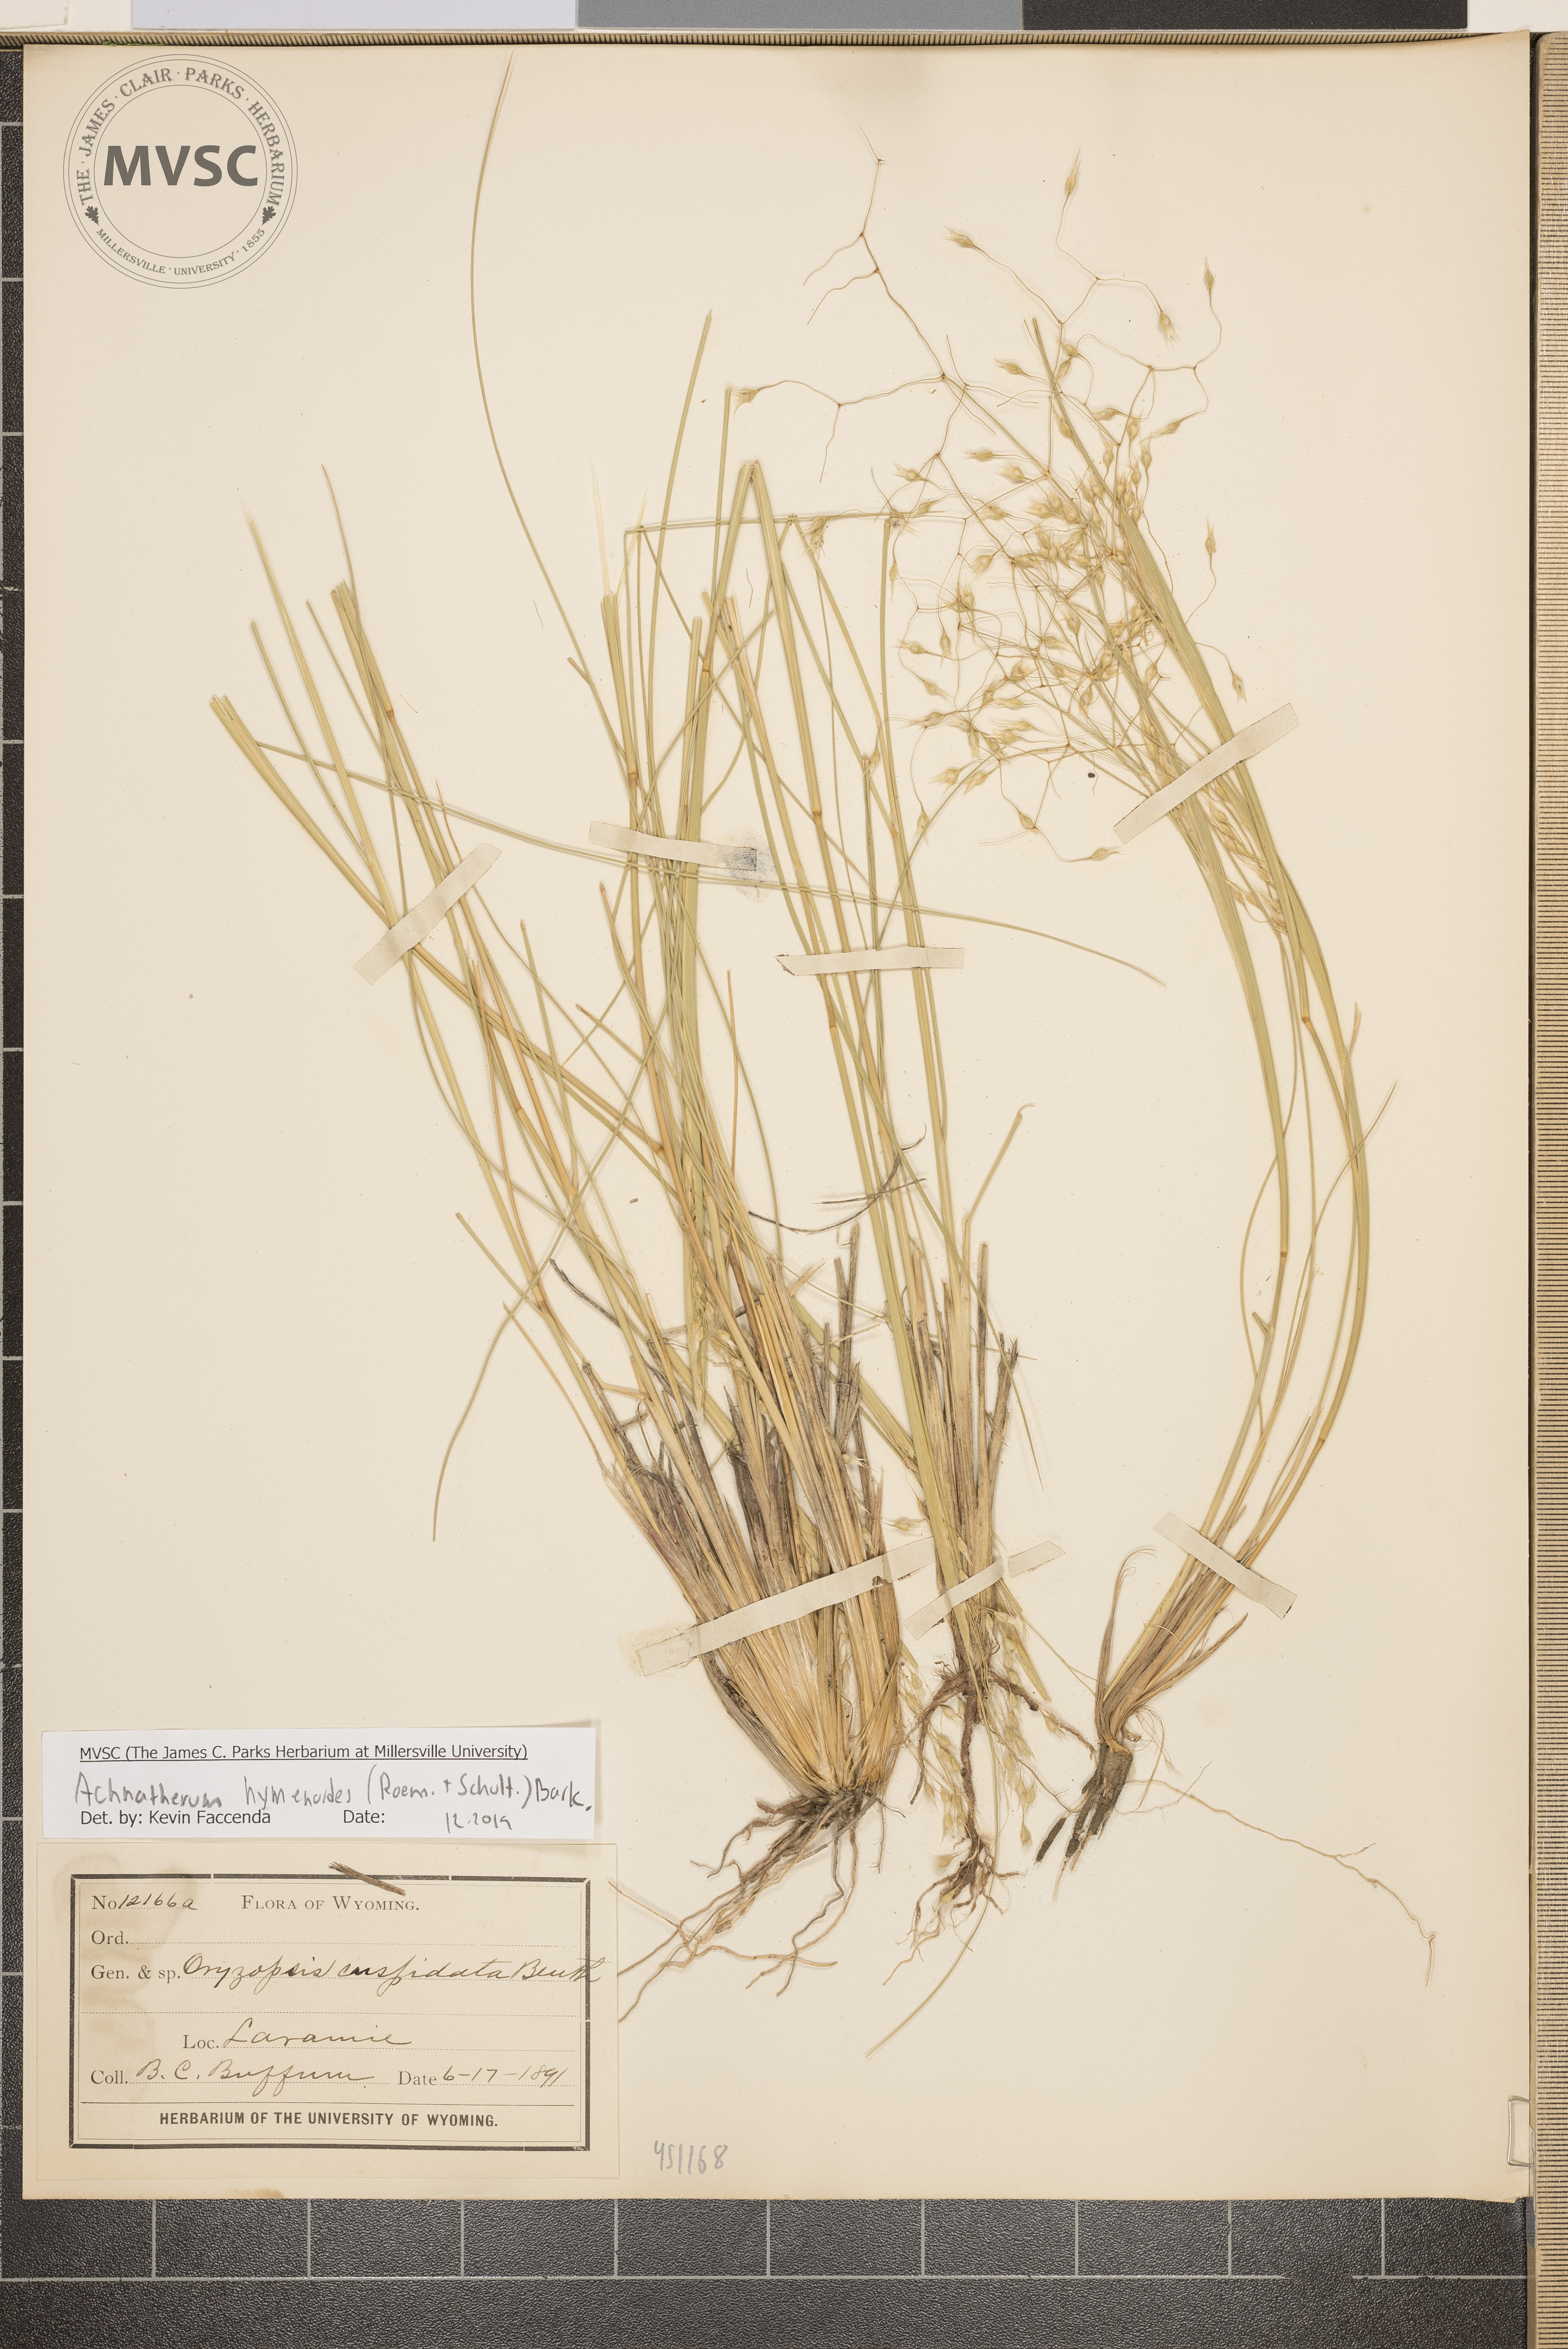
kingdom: Plantae
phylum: Tracheophyta
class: Liliopsida
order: Poales
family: Poaceae
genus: Eriocoma
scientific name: Eriocoma hymenoides
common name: Indian mountain ricegrass
